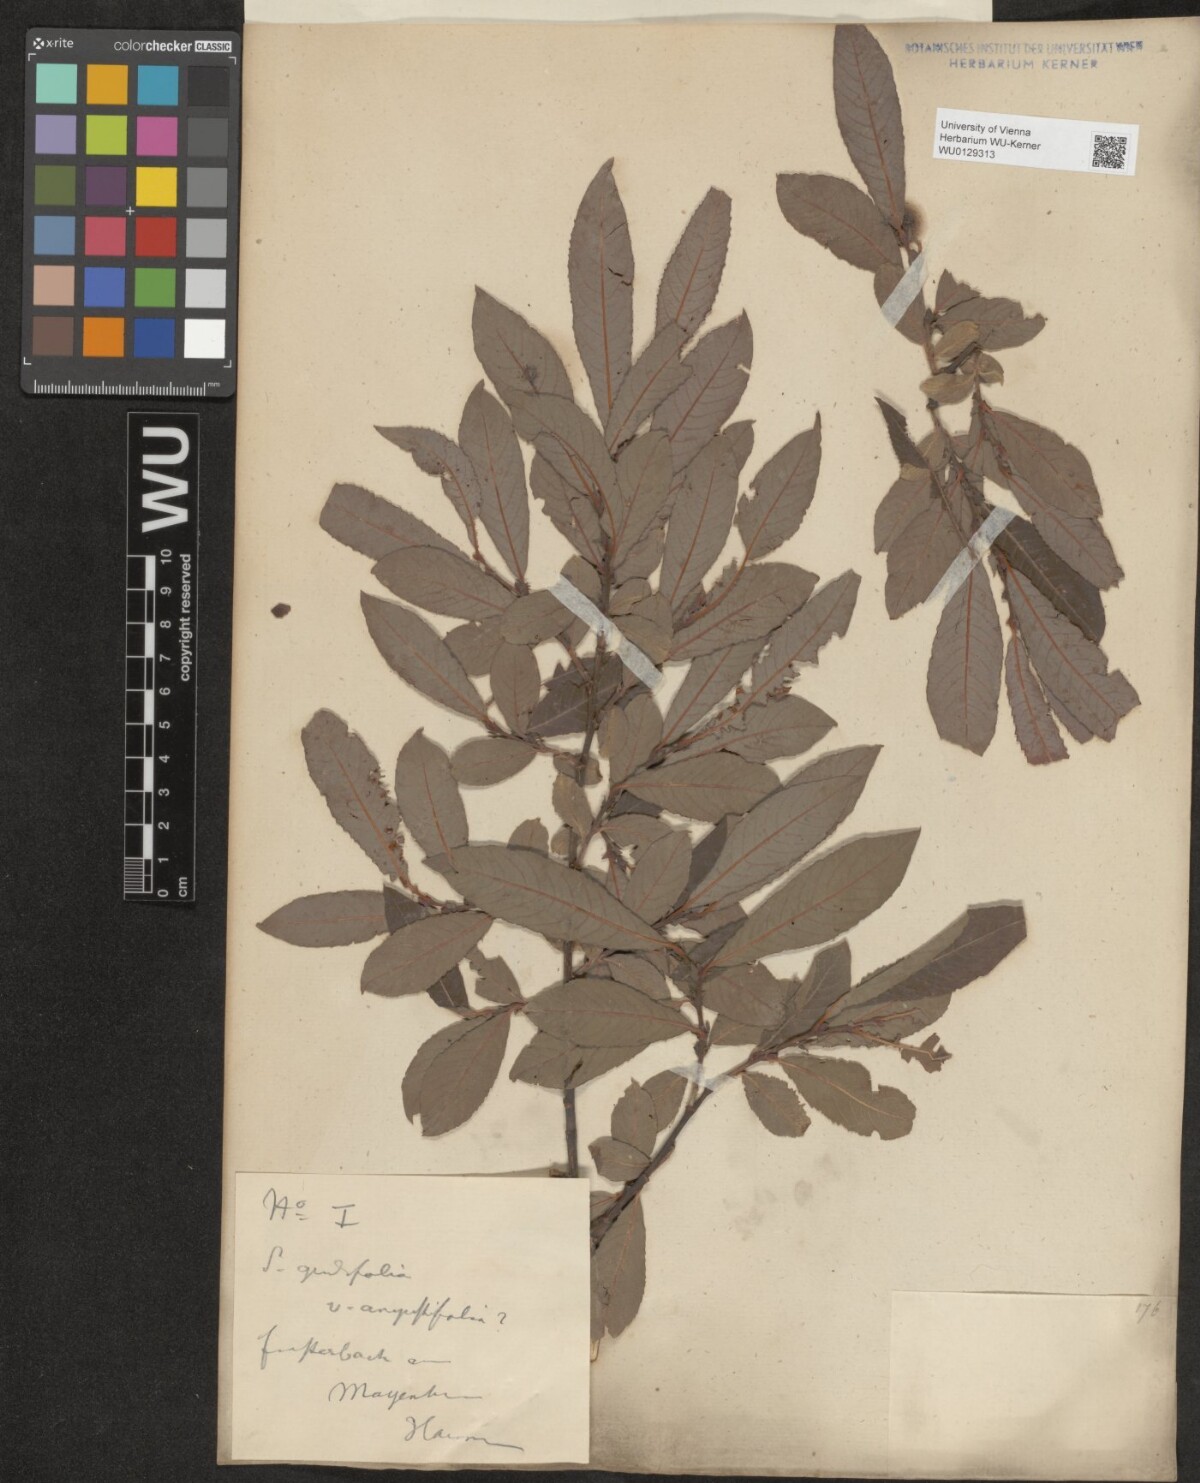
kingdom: Plantae
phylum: Tracheophyta
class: Magnoliopsida
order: Malpighiales
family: Salicaceae
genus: Salix
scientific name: Salix appendiculata
